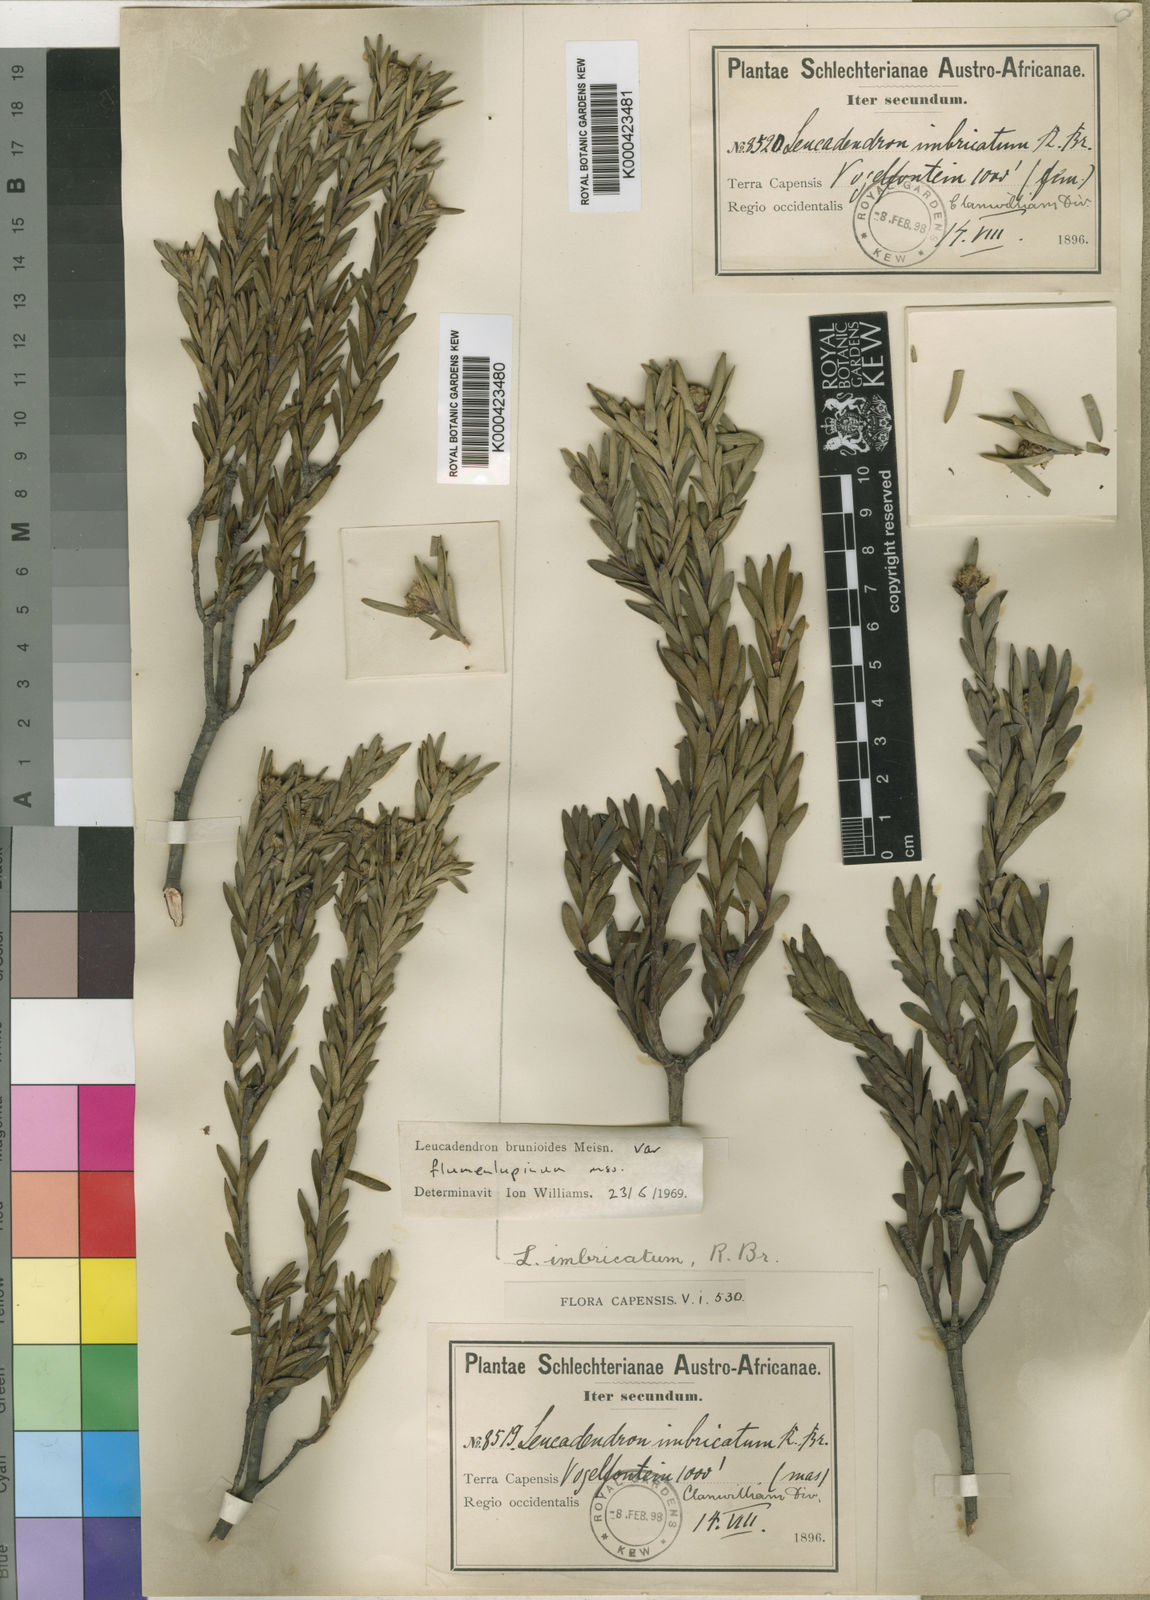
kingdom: Plantae
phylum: Tracheophyta
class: Magnoliopsida
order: Proteales
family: Proteaceae
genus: Leucadendron
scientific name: Leucadendron brunioides
